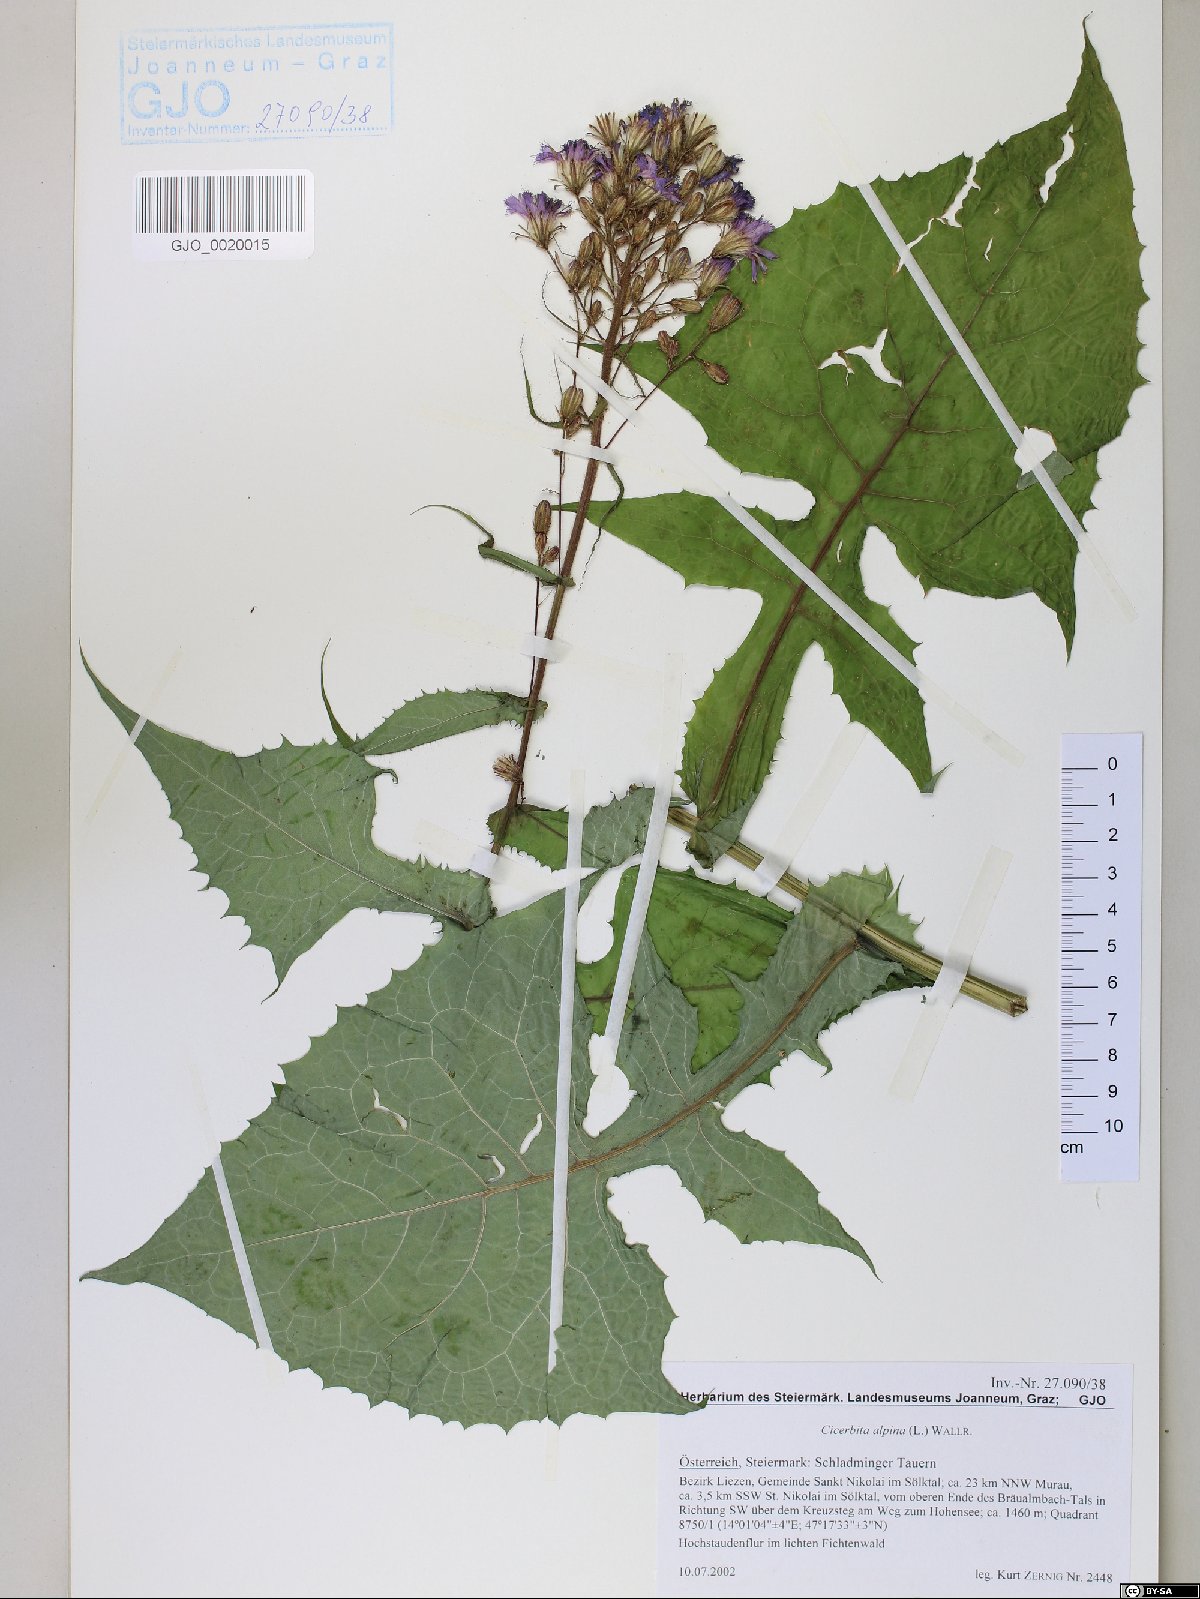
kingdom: Plantae
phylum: Tracheophyta
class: Magnoliopsida
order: Asterales
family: Asteraceae
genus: Cicerbita
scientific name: Cicerbita alpina
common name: Alpine blue-sow-thistle
